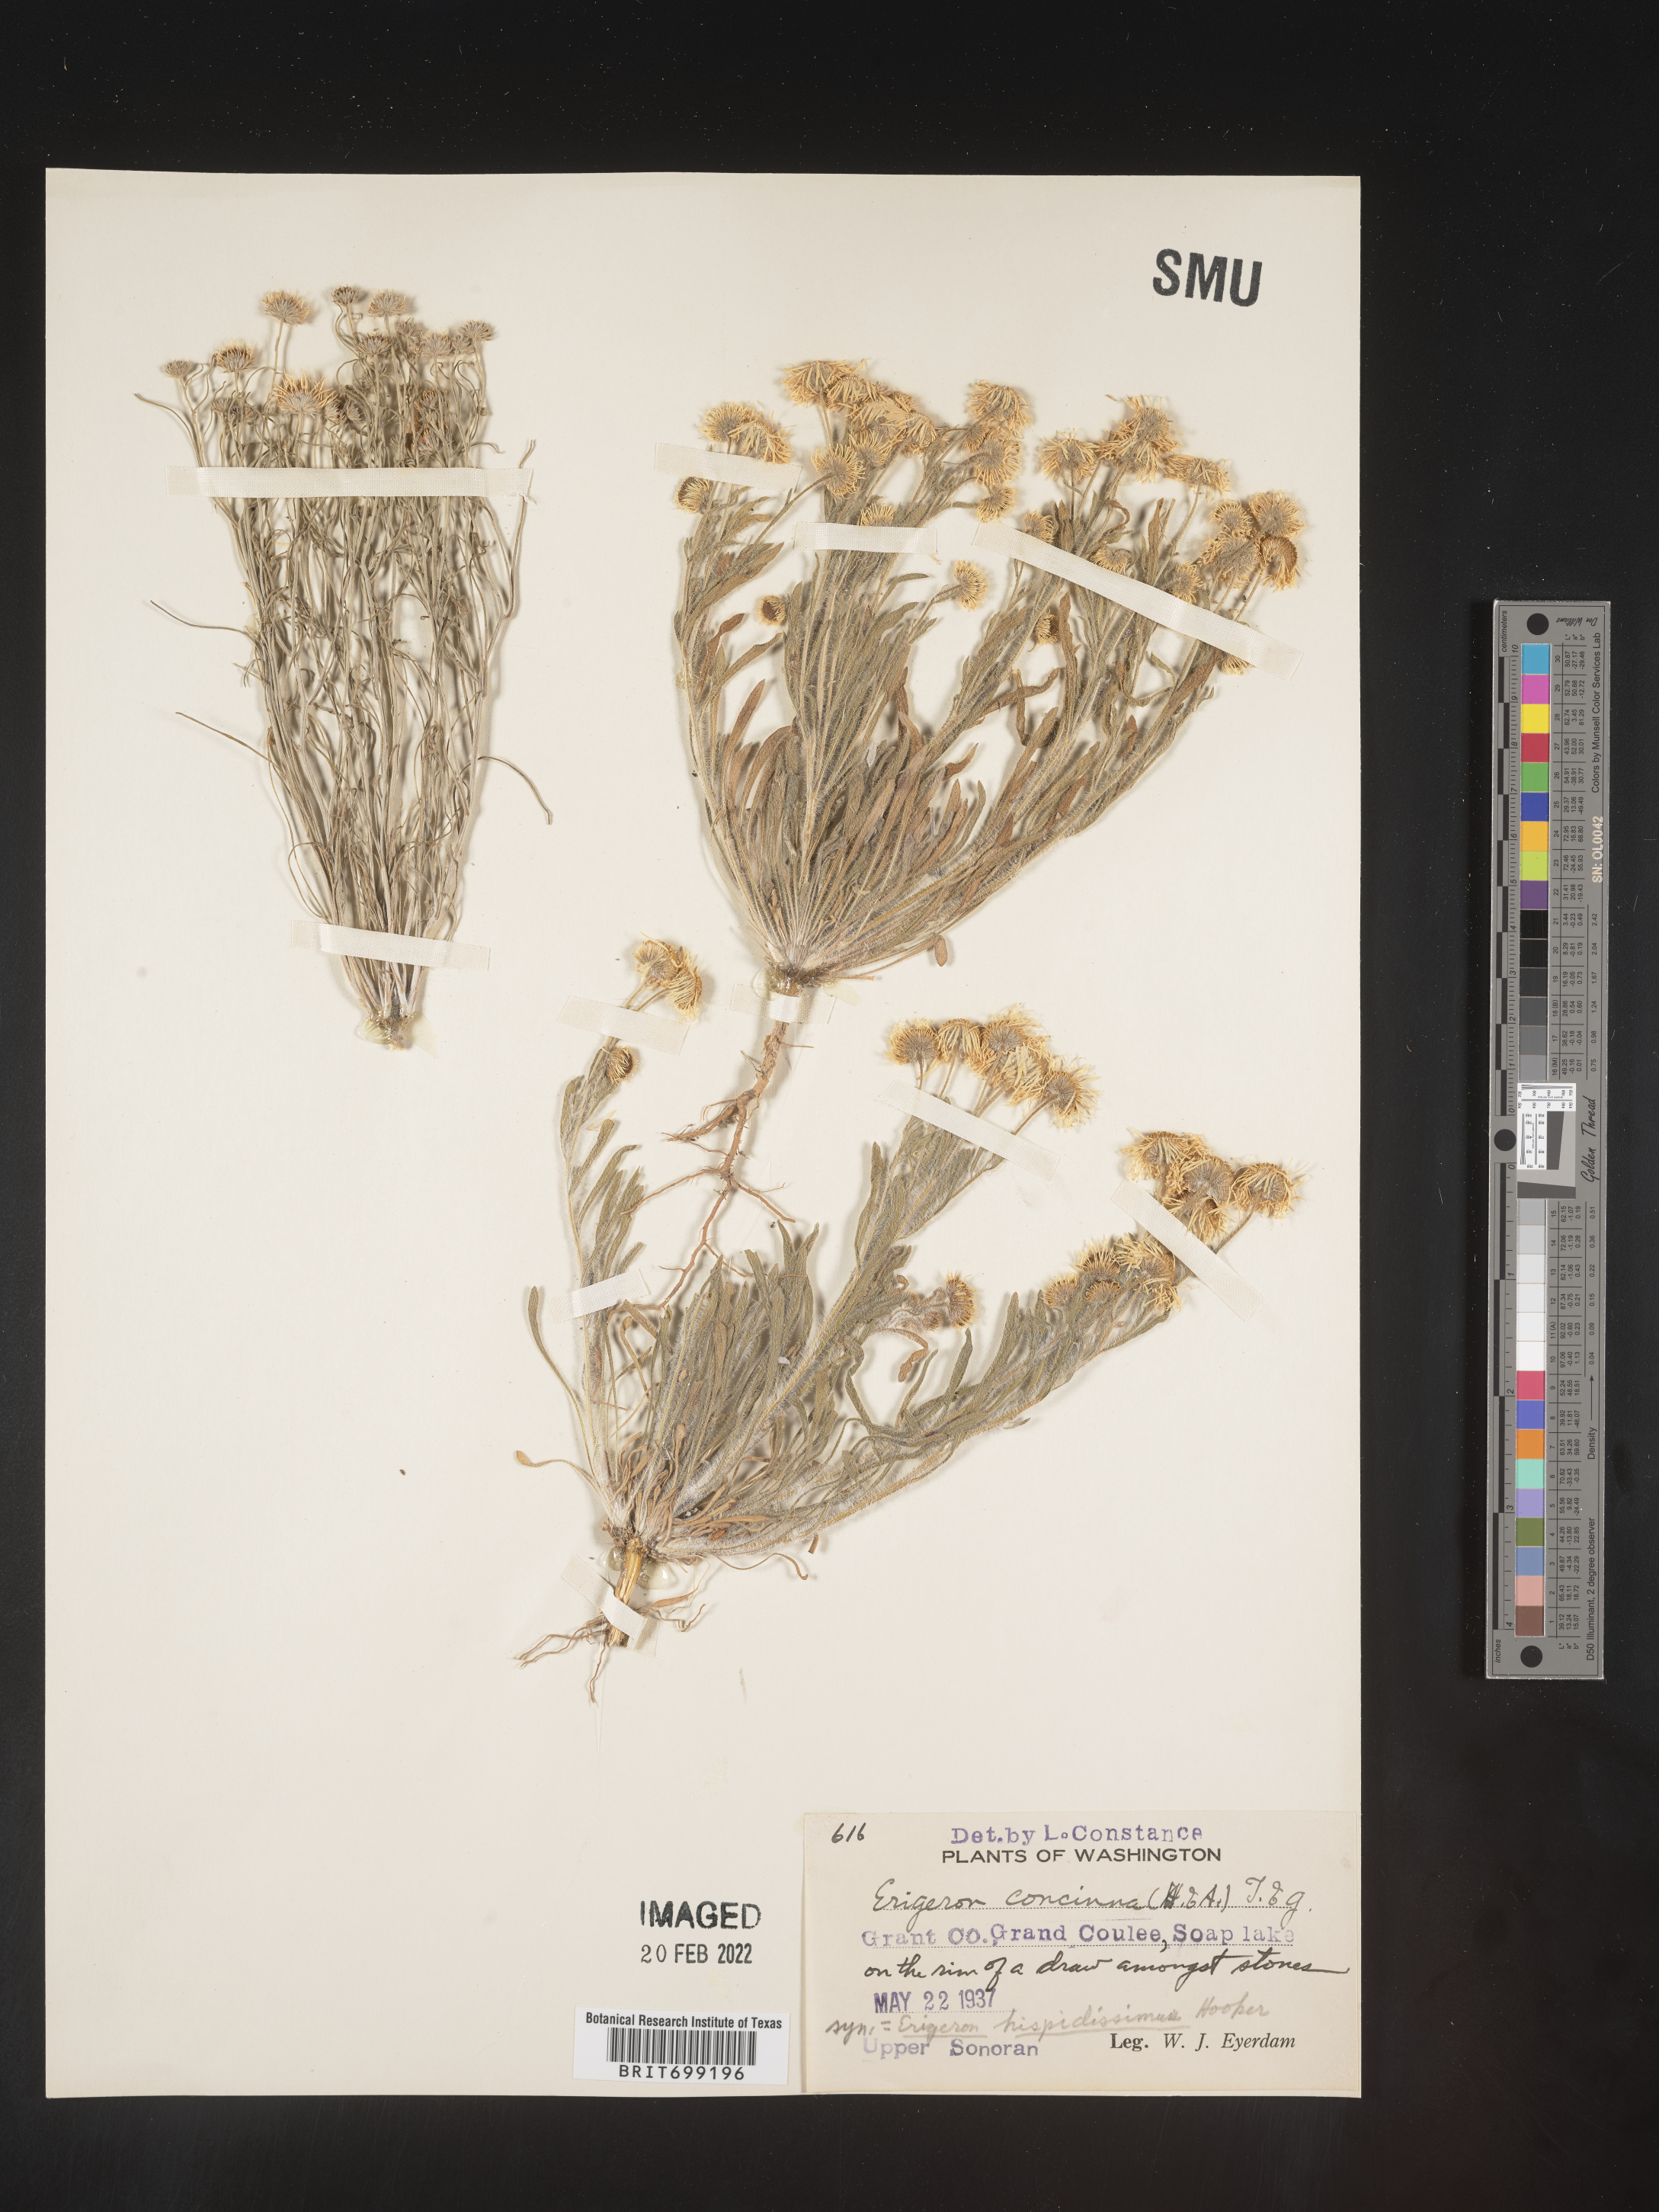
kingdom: Plantae
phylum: Tracheophyta
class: Magnoliopsida
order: Asterales
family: Asteraceae
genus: Erigeron
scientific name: Erigeron pumilus
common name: Shaggy fleabane
